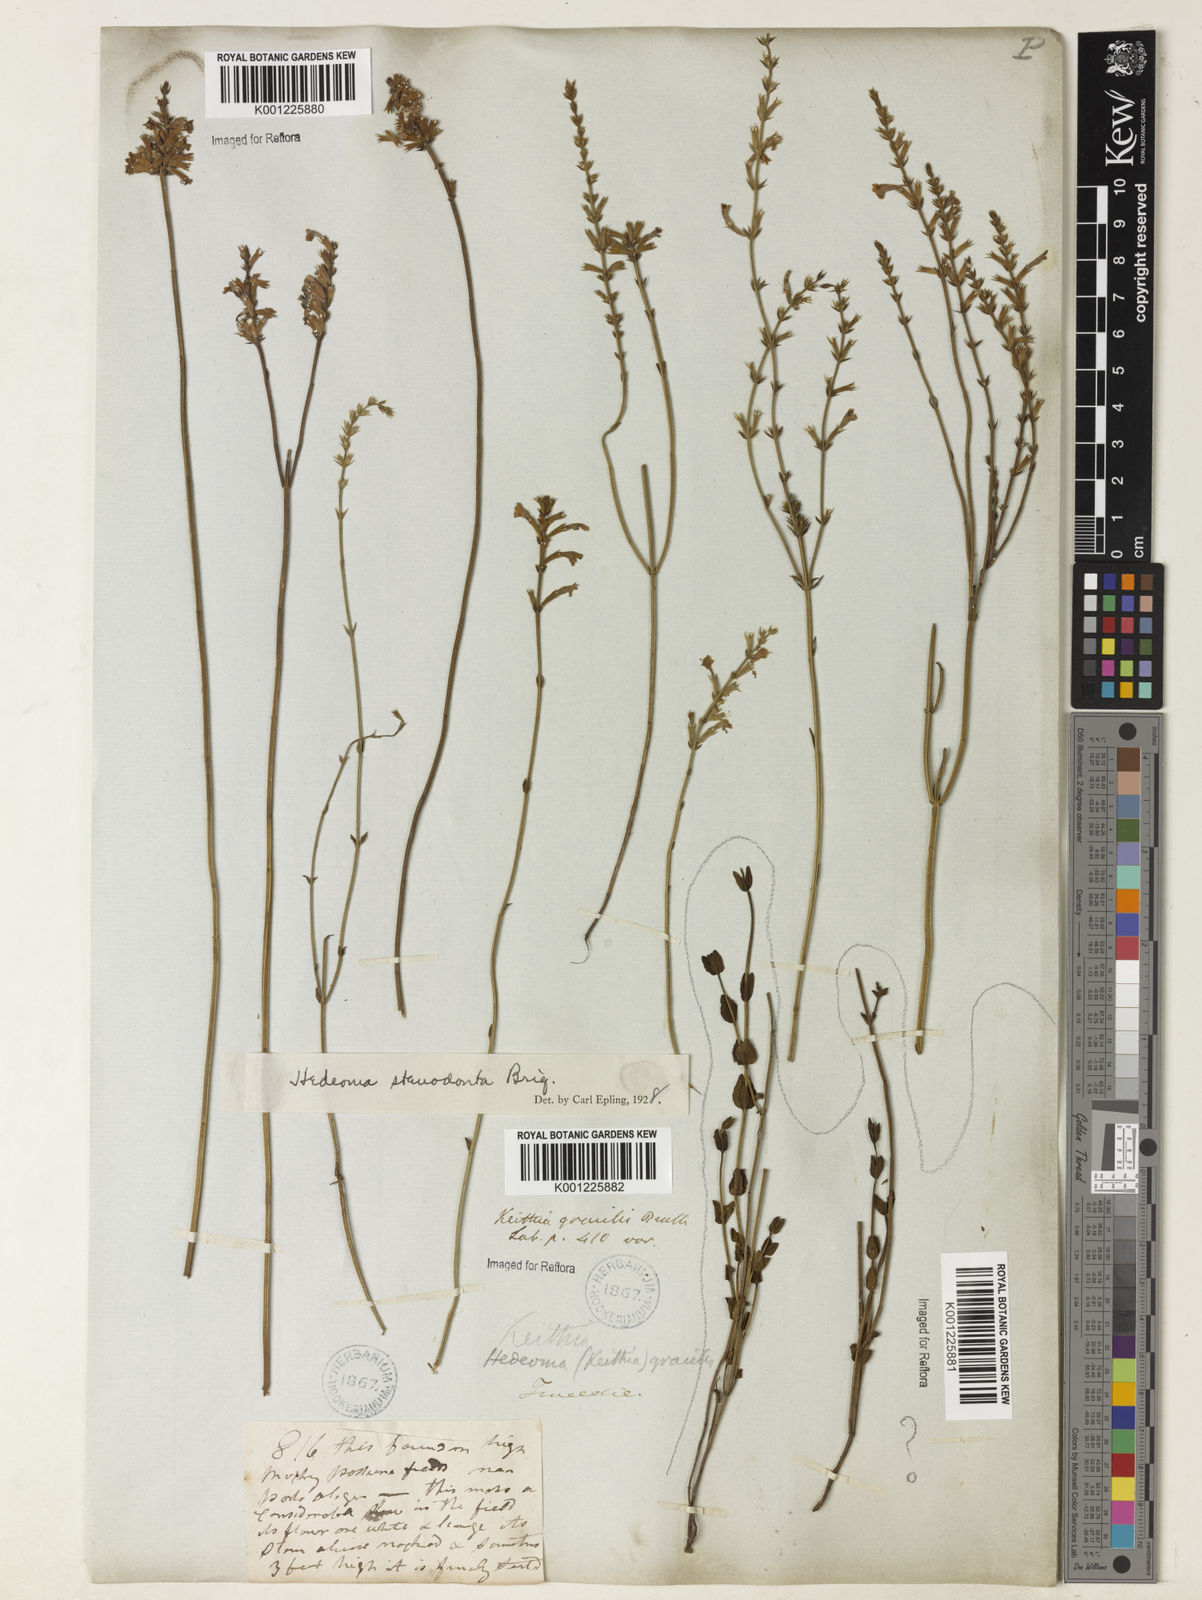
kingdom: Plantae
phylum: Tracheophyta
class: Magnoliopsida
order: Lamiales
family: Lamiaceae
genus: Rhabdocaulon
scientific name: Rhabdocaulon stenodontum
